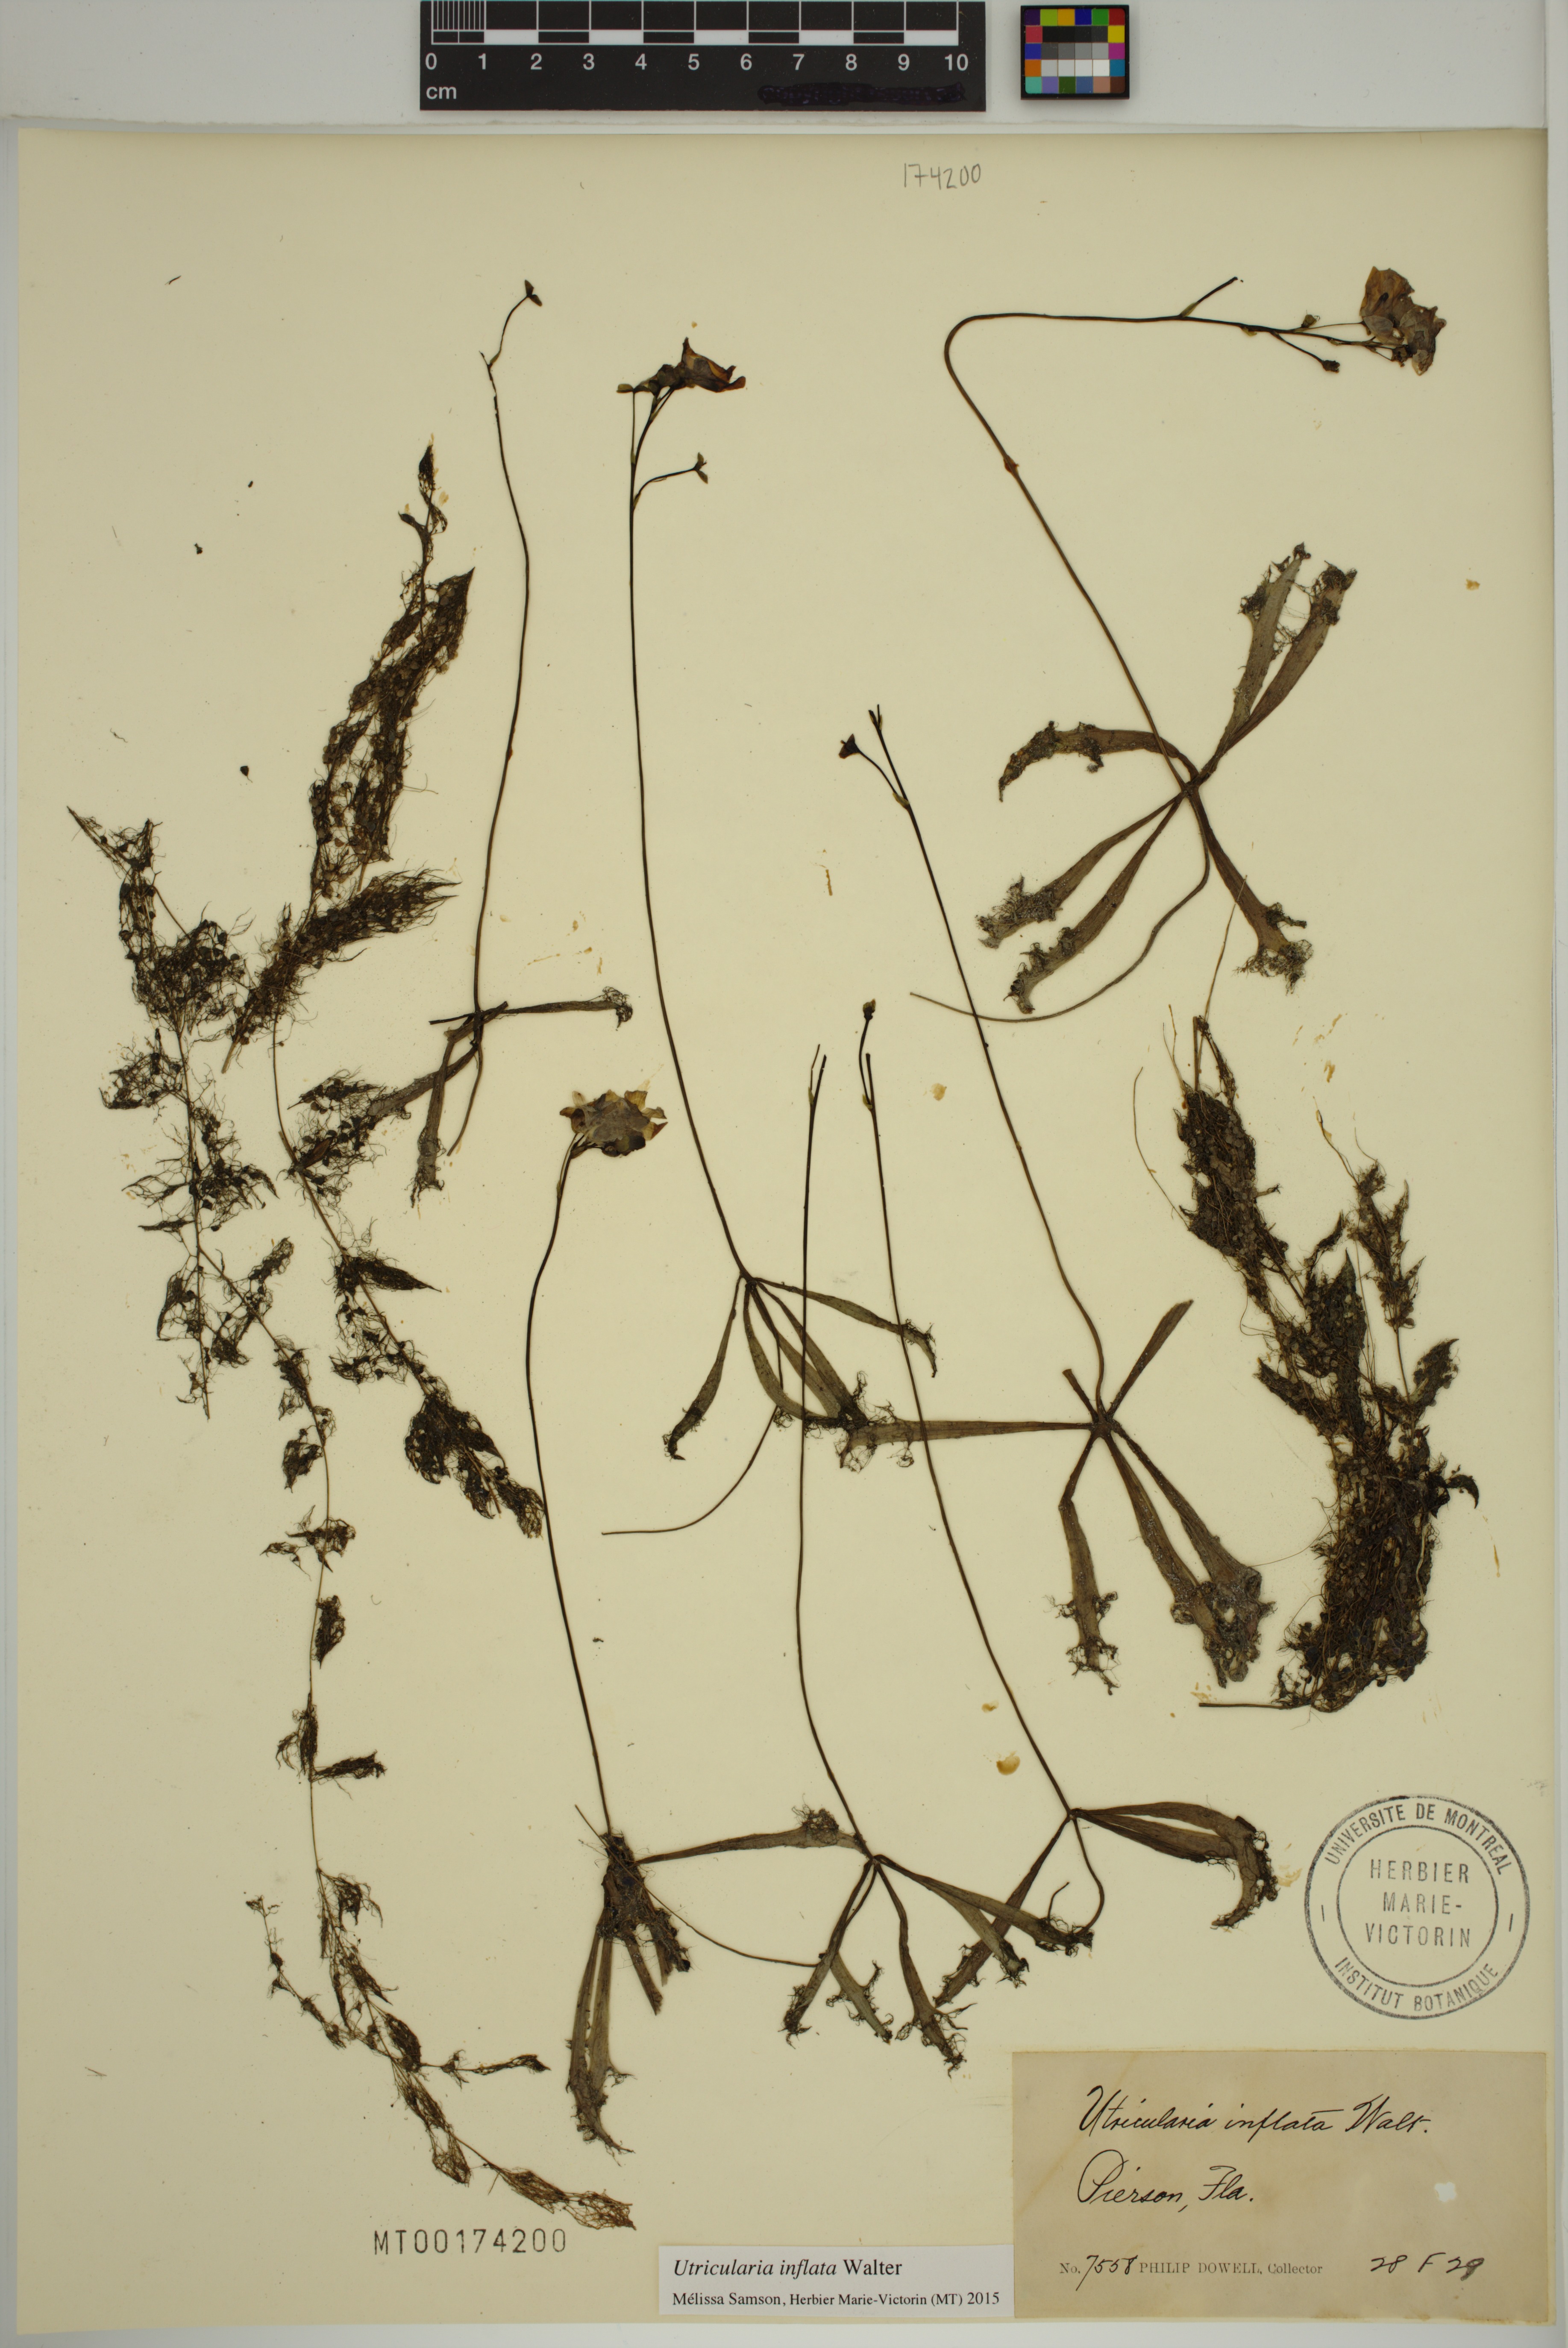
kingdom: Plantae
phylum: Tracheophyta
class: Magnoliopsida
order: Lamiales
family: Lentibulariaceae
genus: Utricularia
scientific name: Utricularia inflata
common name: Floating bladderwort
